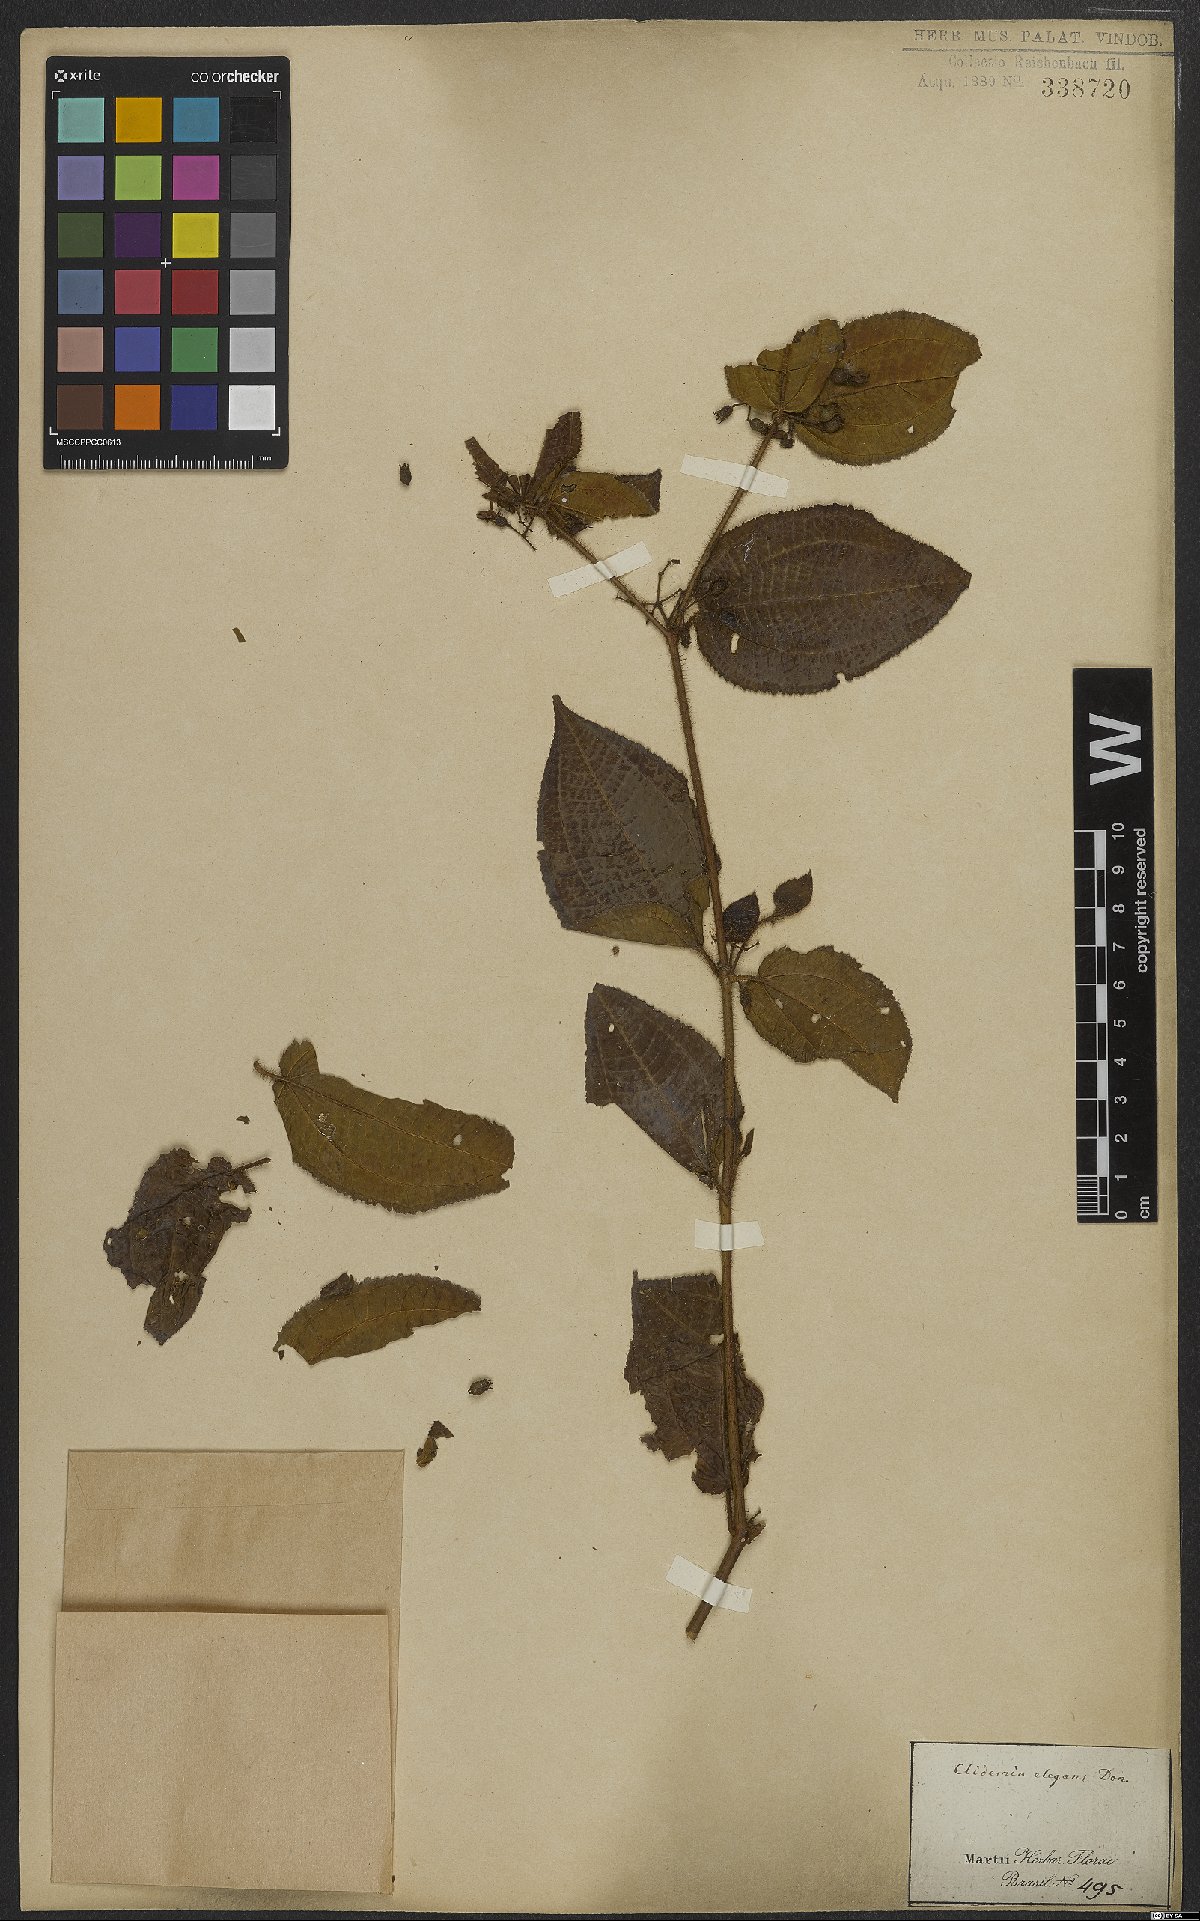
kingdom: Plantae
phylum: Tracheophyta
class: Magnoliopsida
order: Myrtales
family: Melastomataceae
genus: Miconia
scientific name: Miconia crenata
